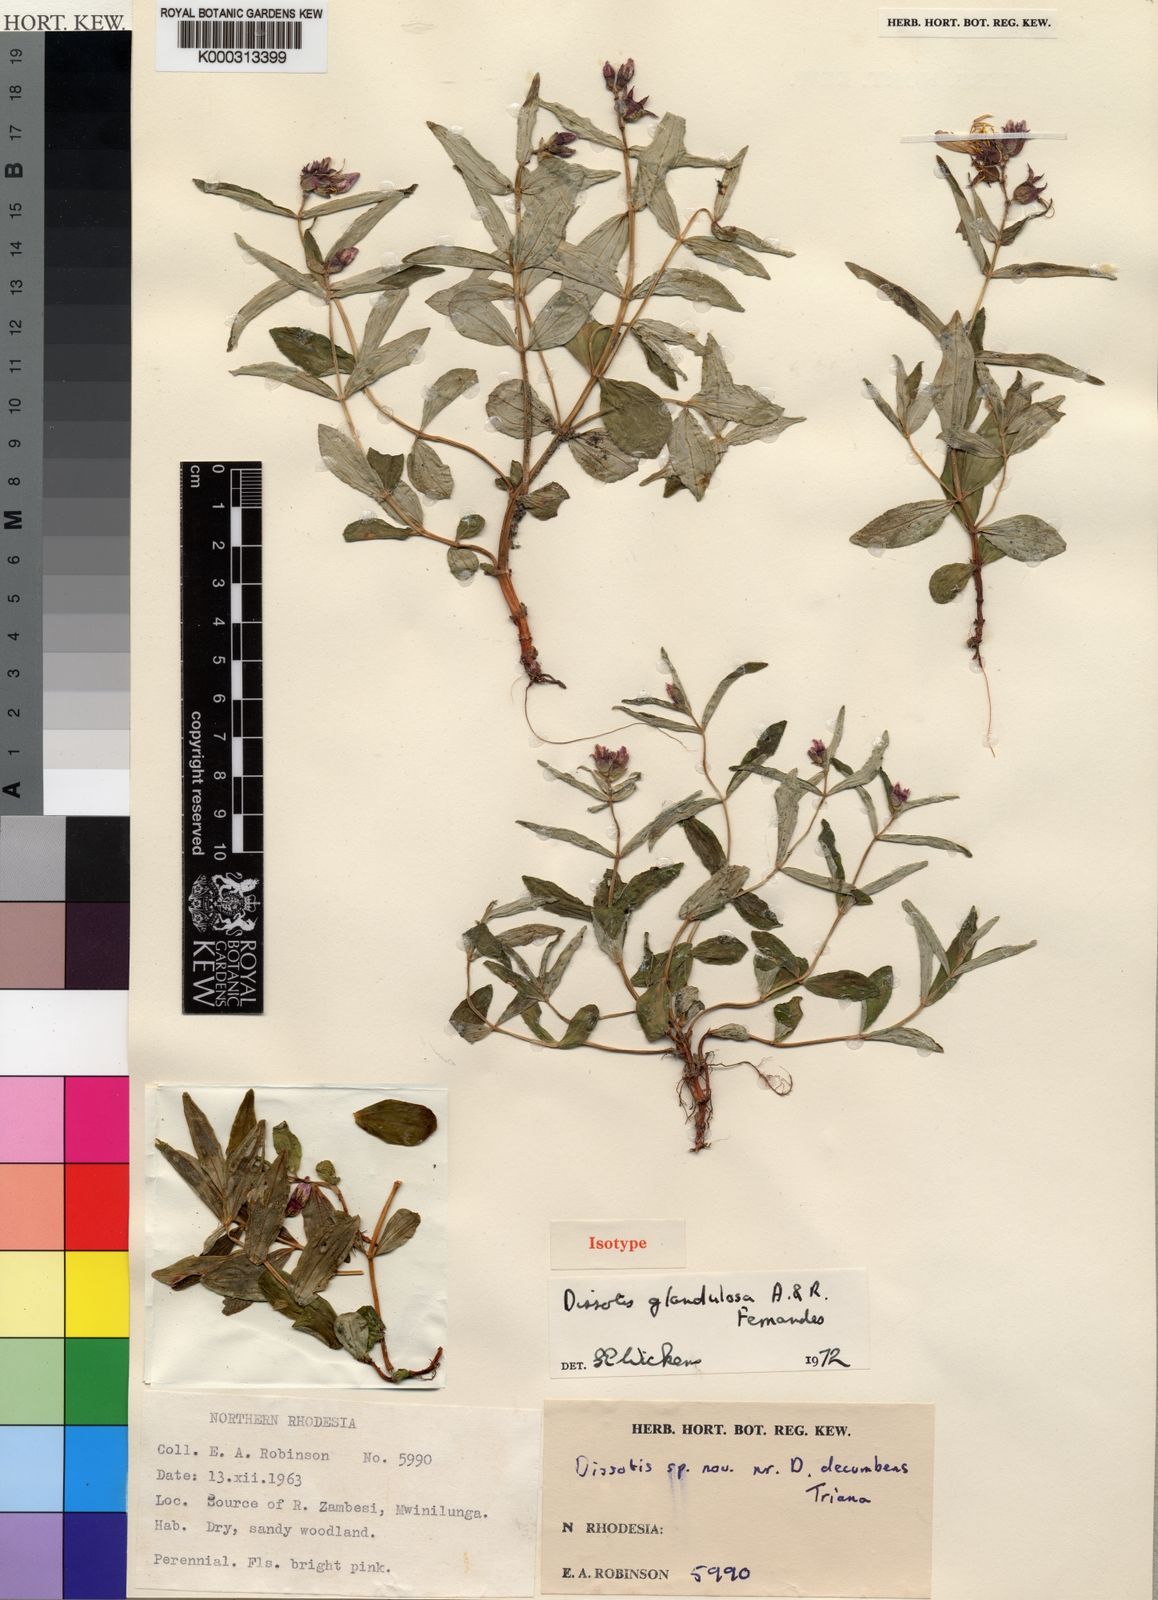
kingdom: Plantae
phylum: Tracheophyta
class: Magnoliopsida
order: Myrtales
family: Melastomataceae
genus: Guyonia
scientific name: Guyonia glandulosa
